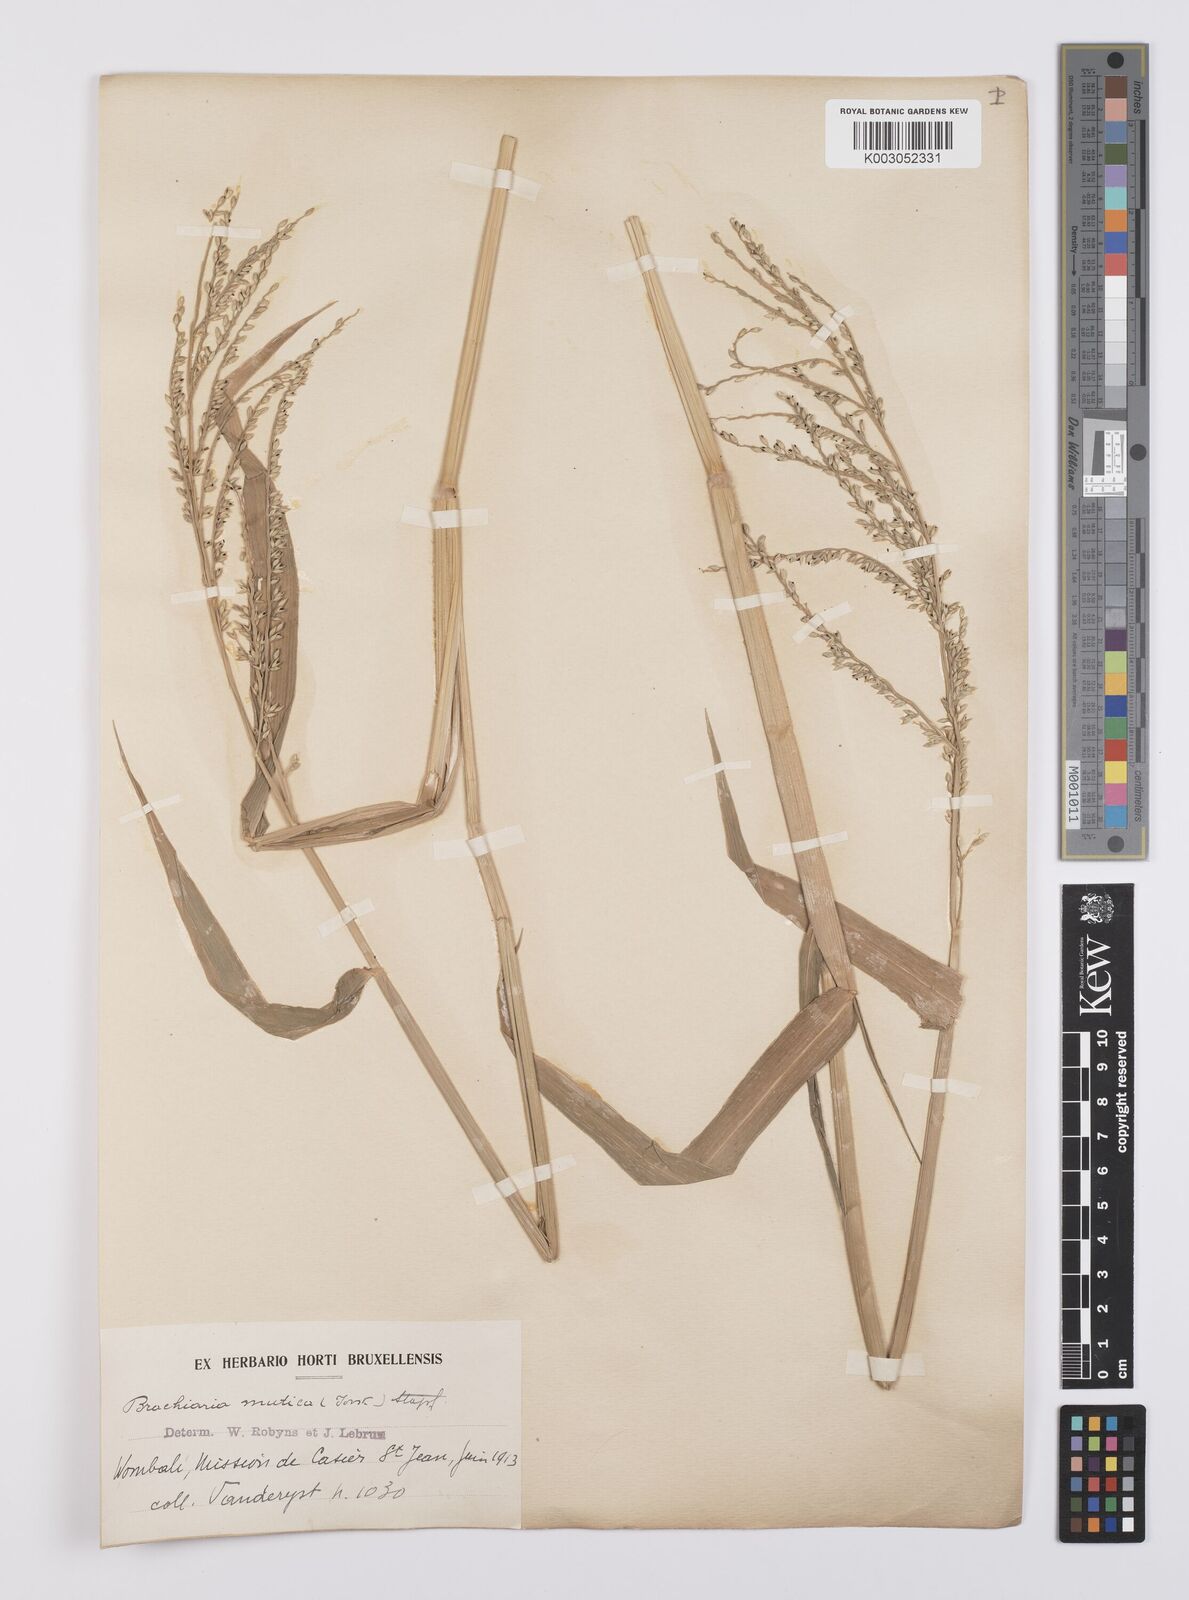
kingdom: Plantae
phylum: Tracheophyta
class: Liliopsida
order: Poales
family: Poaceae
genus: Urochloa
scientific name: Urochloa mutica
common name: Para grass
